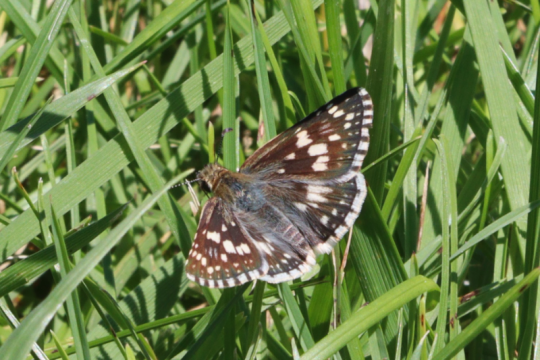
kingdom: Animalia
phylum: Arthropoda
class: Insecta
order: Lepidoptera
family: Hesperiidae
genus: Pyrgus
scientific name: Pyrgus communis
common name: Common Checkered-Skipper
